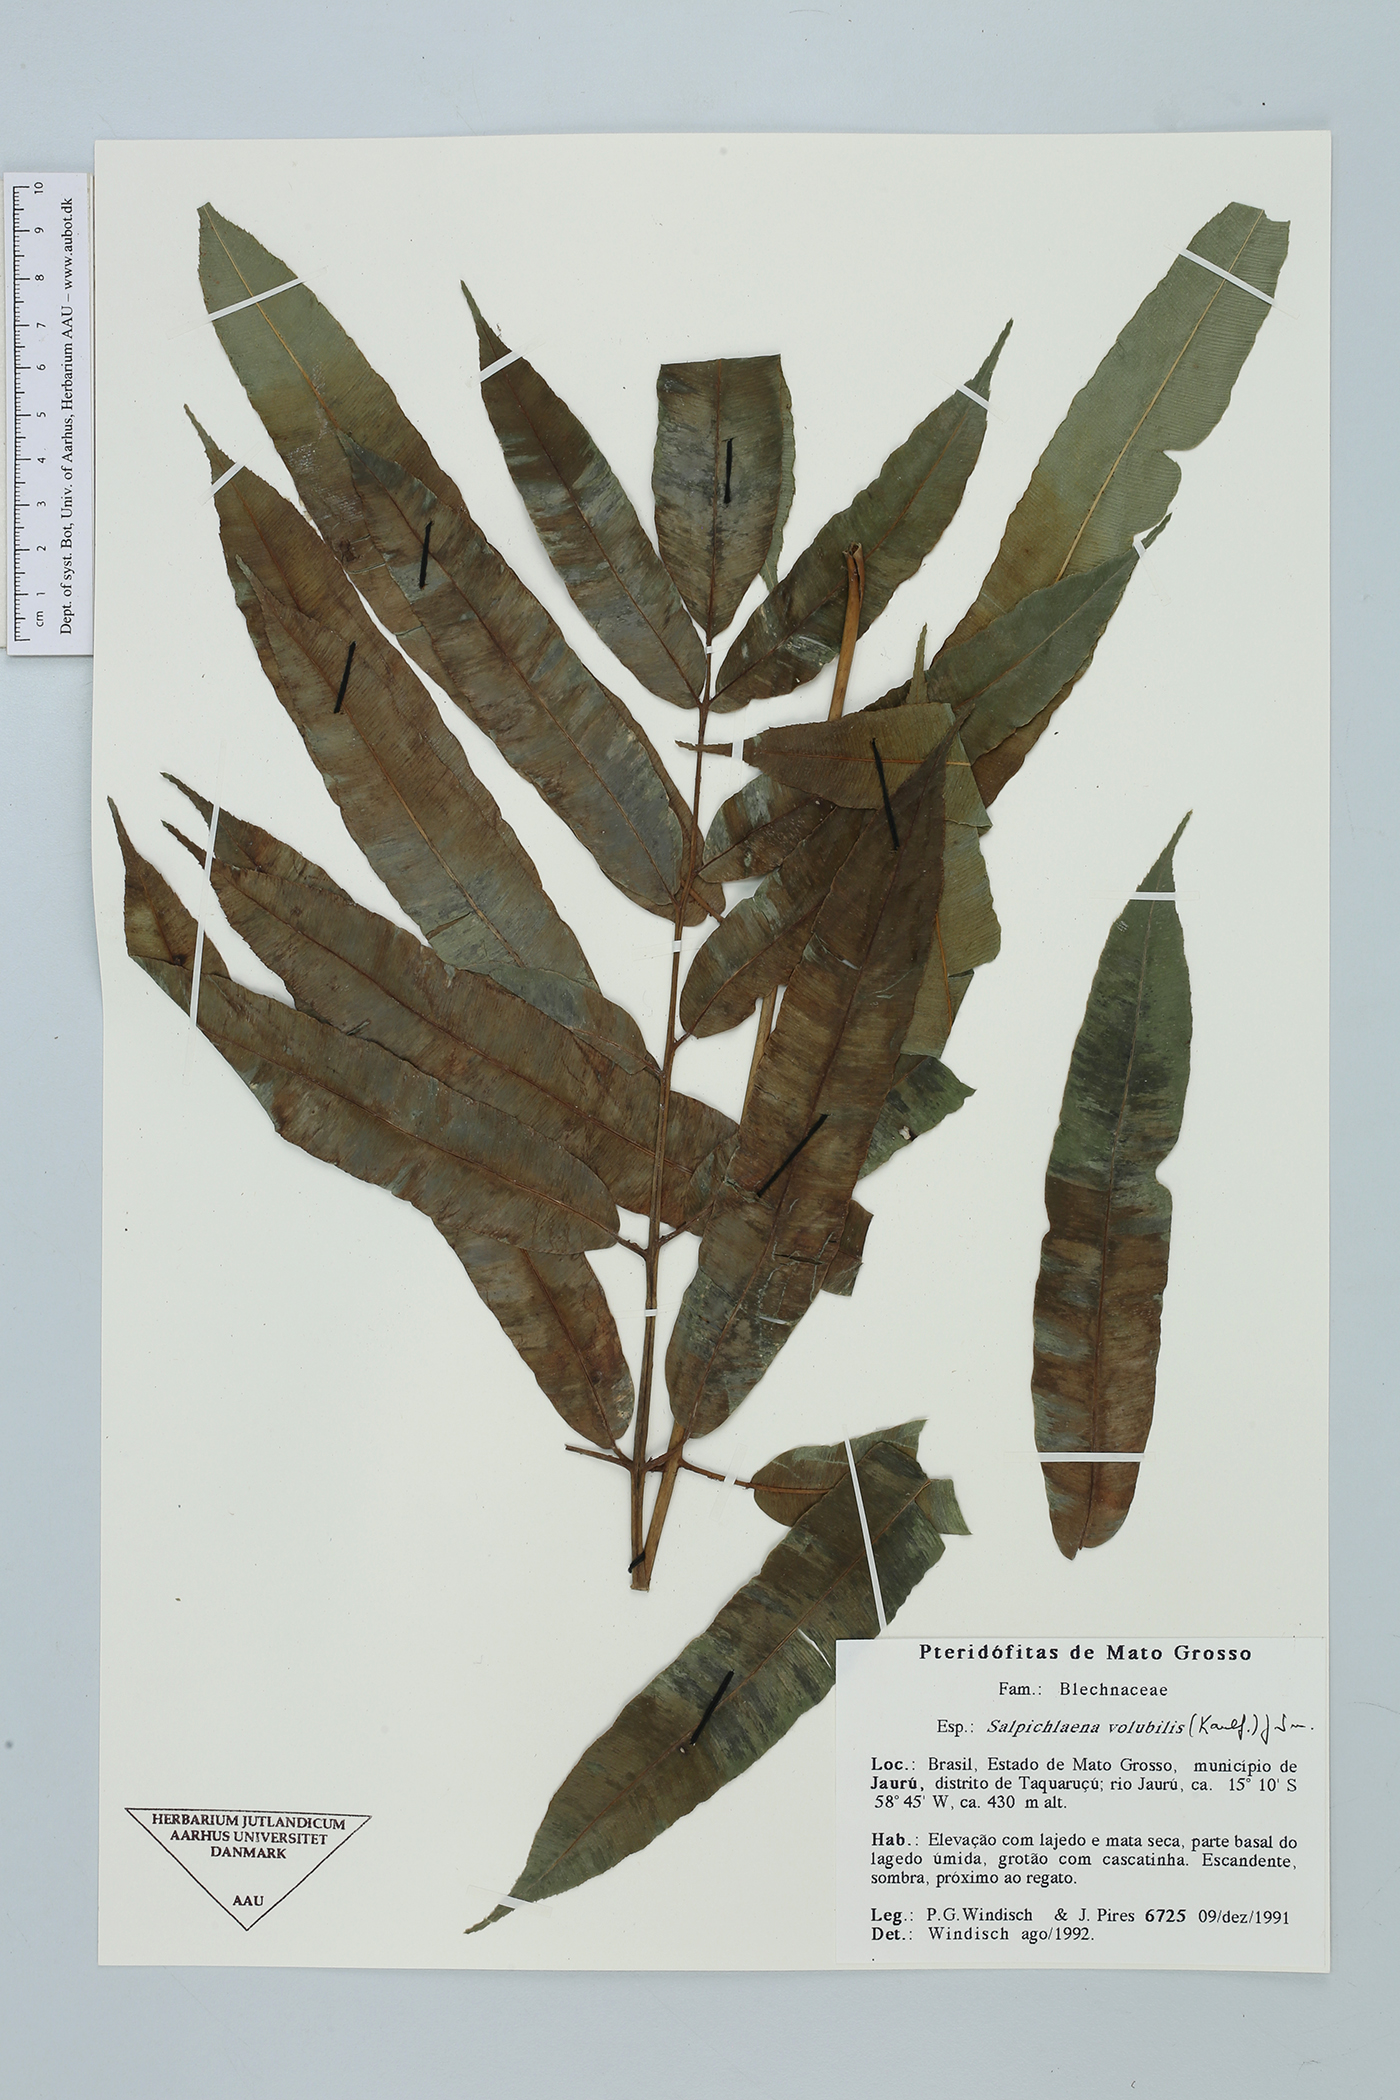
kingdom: Plantae
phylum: Tracheophyta
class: Polypodiopsida
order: Polypodiales
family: Blechnaceae
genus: Salpichlaena
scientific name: Salpichlaena volubilis
